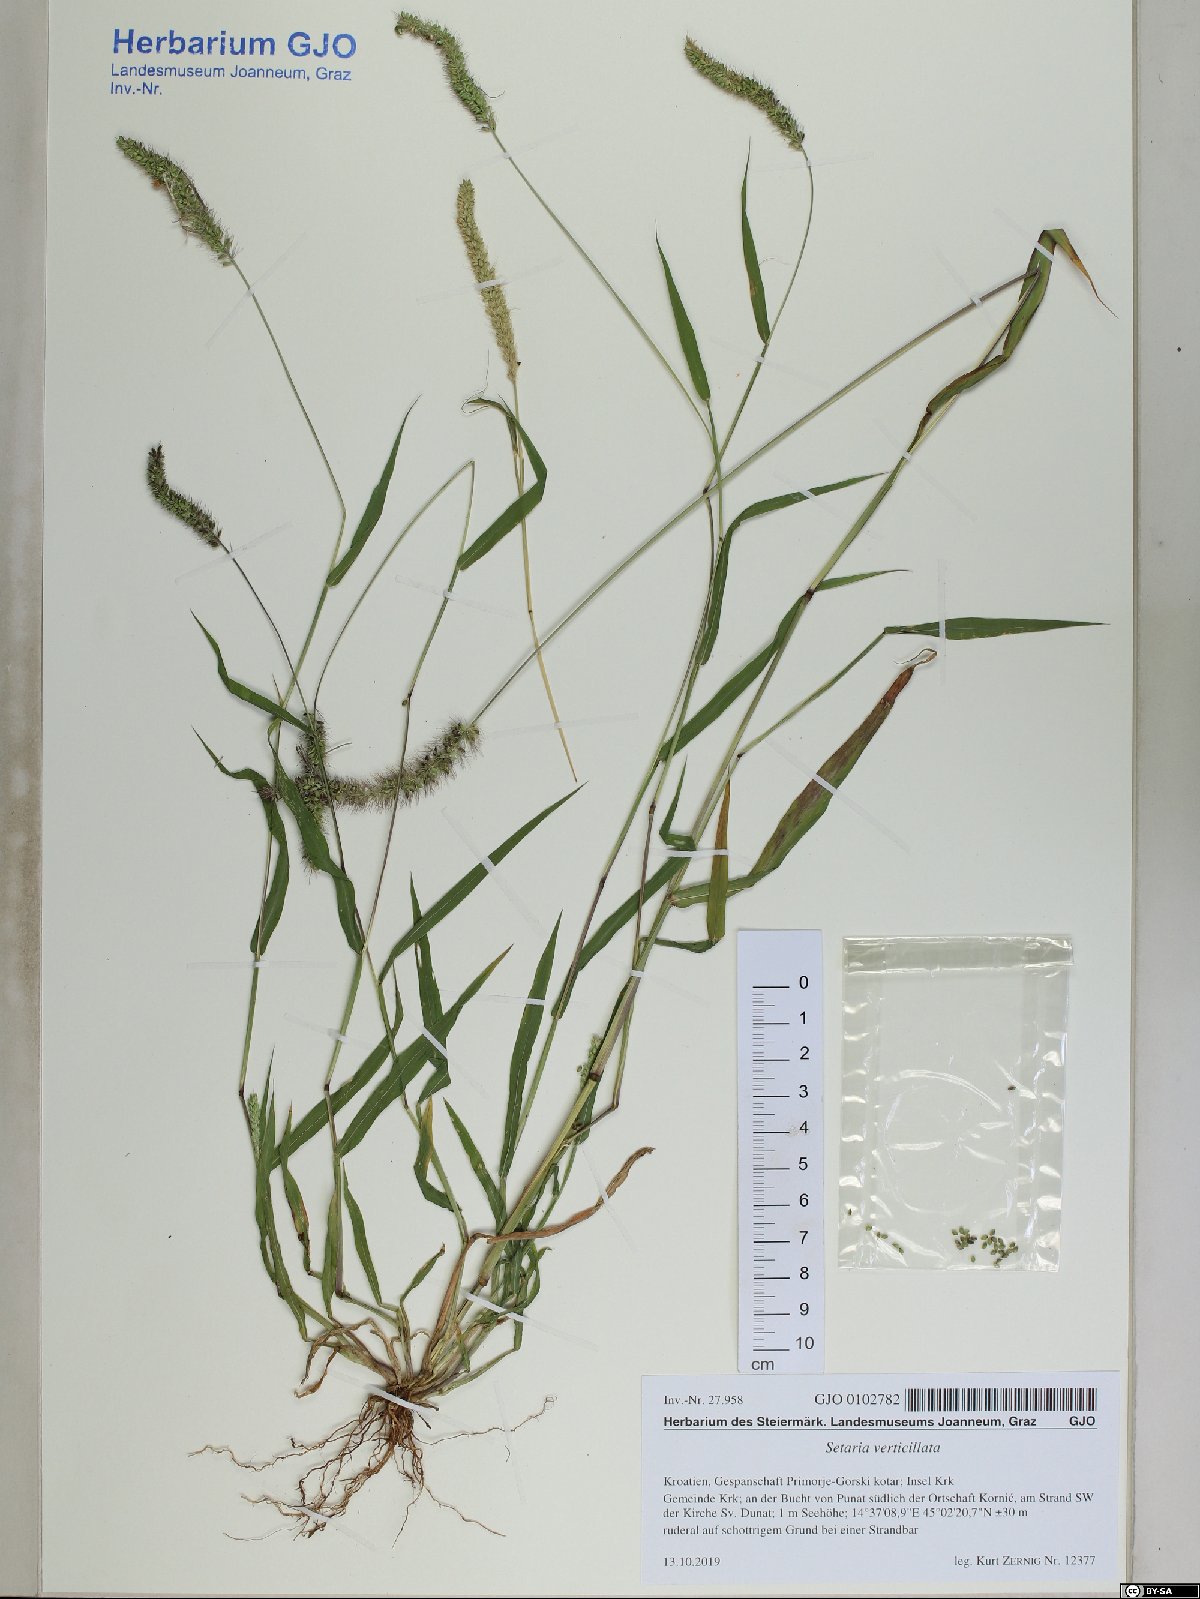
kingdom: Plantae
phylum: Tracheophyta
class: Liliopsida
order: Poales
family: Poaceae
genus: Setaria
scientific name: Setaria verticillata
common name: Hooked bristlegrass
